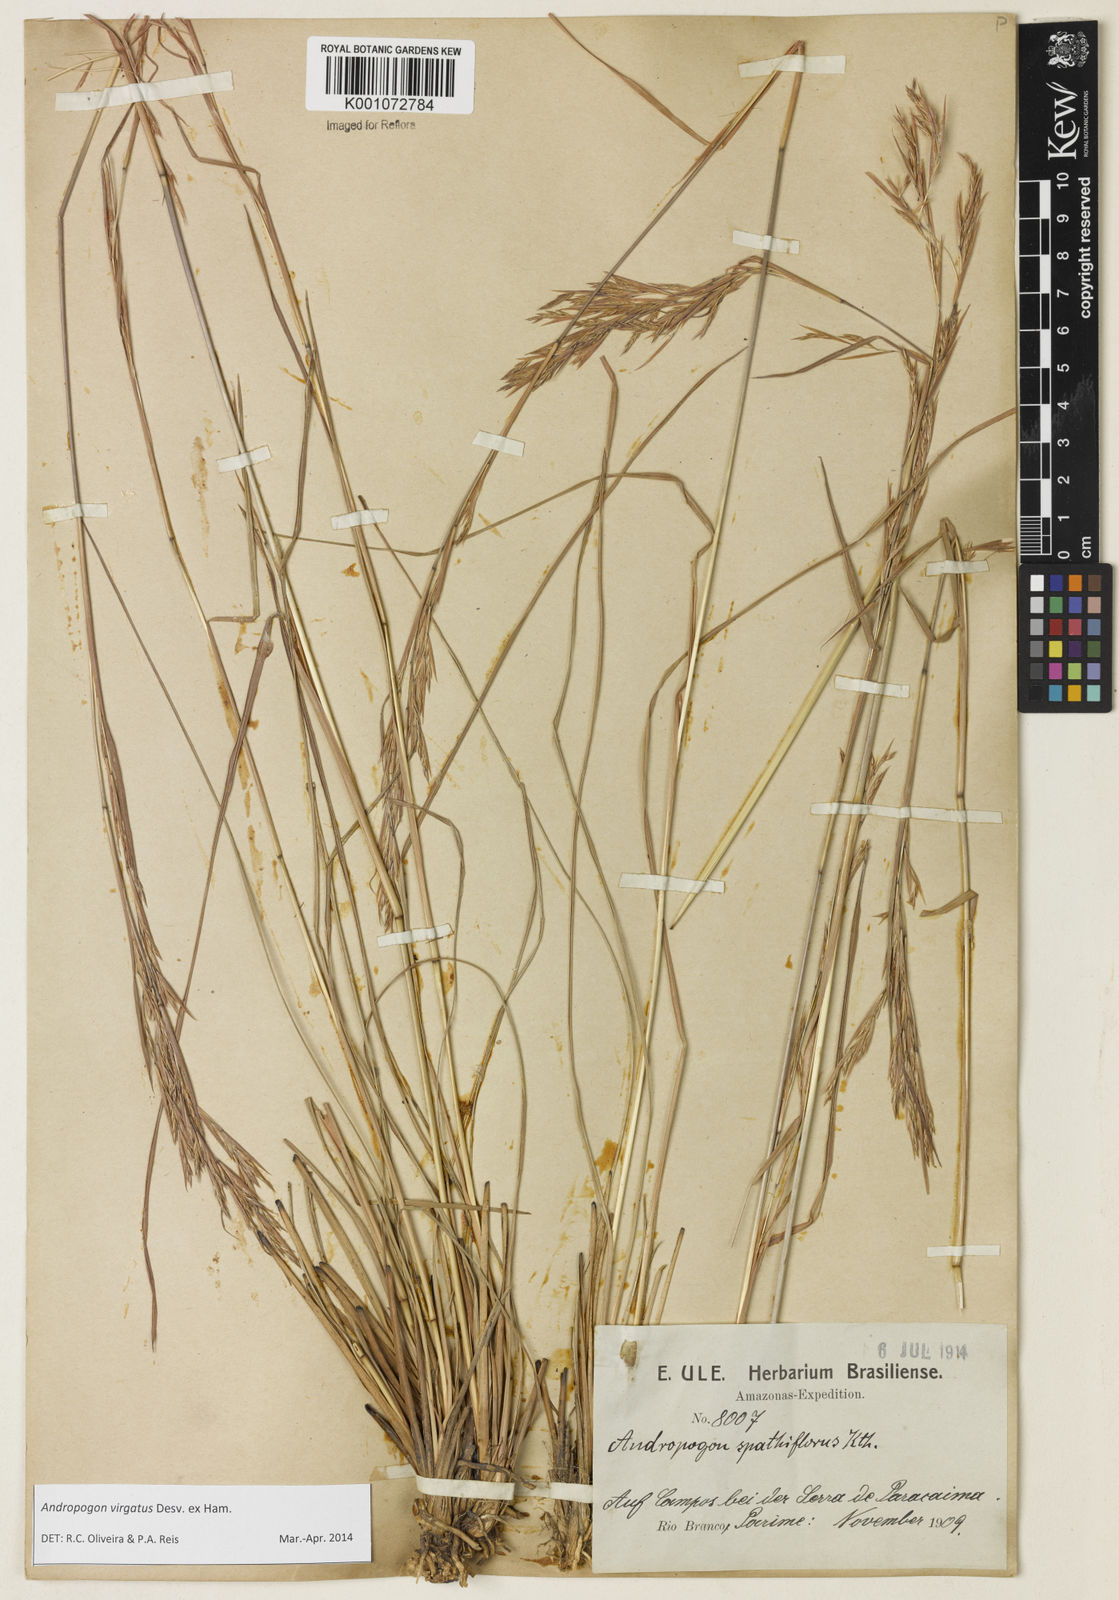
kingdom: Plantae
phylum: Tracheophyta
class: Liliopsida
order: Poales
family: Poaceae
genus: Andropogon
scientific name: Andropogon virgatus
